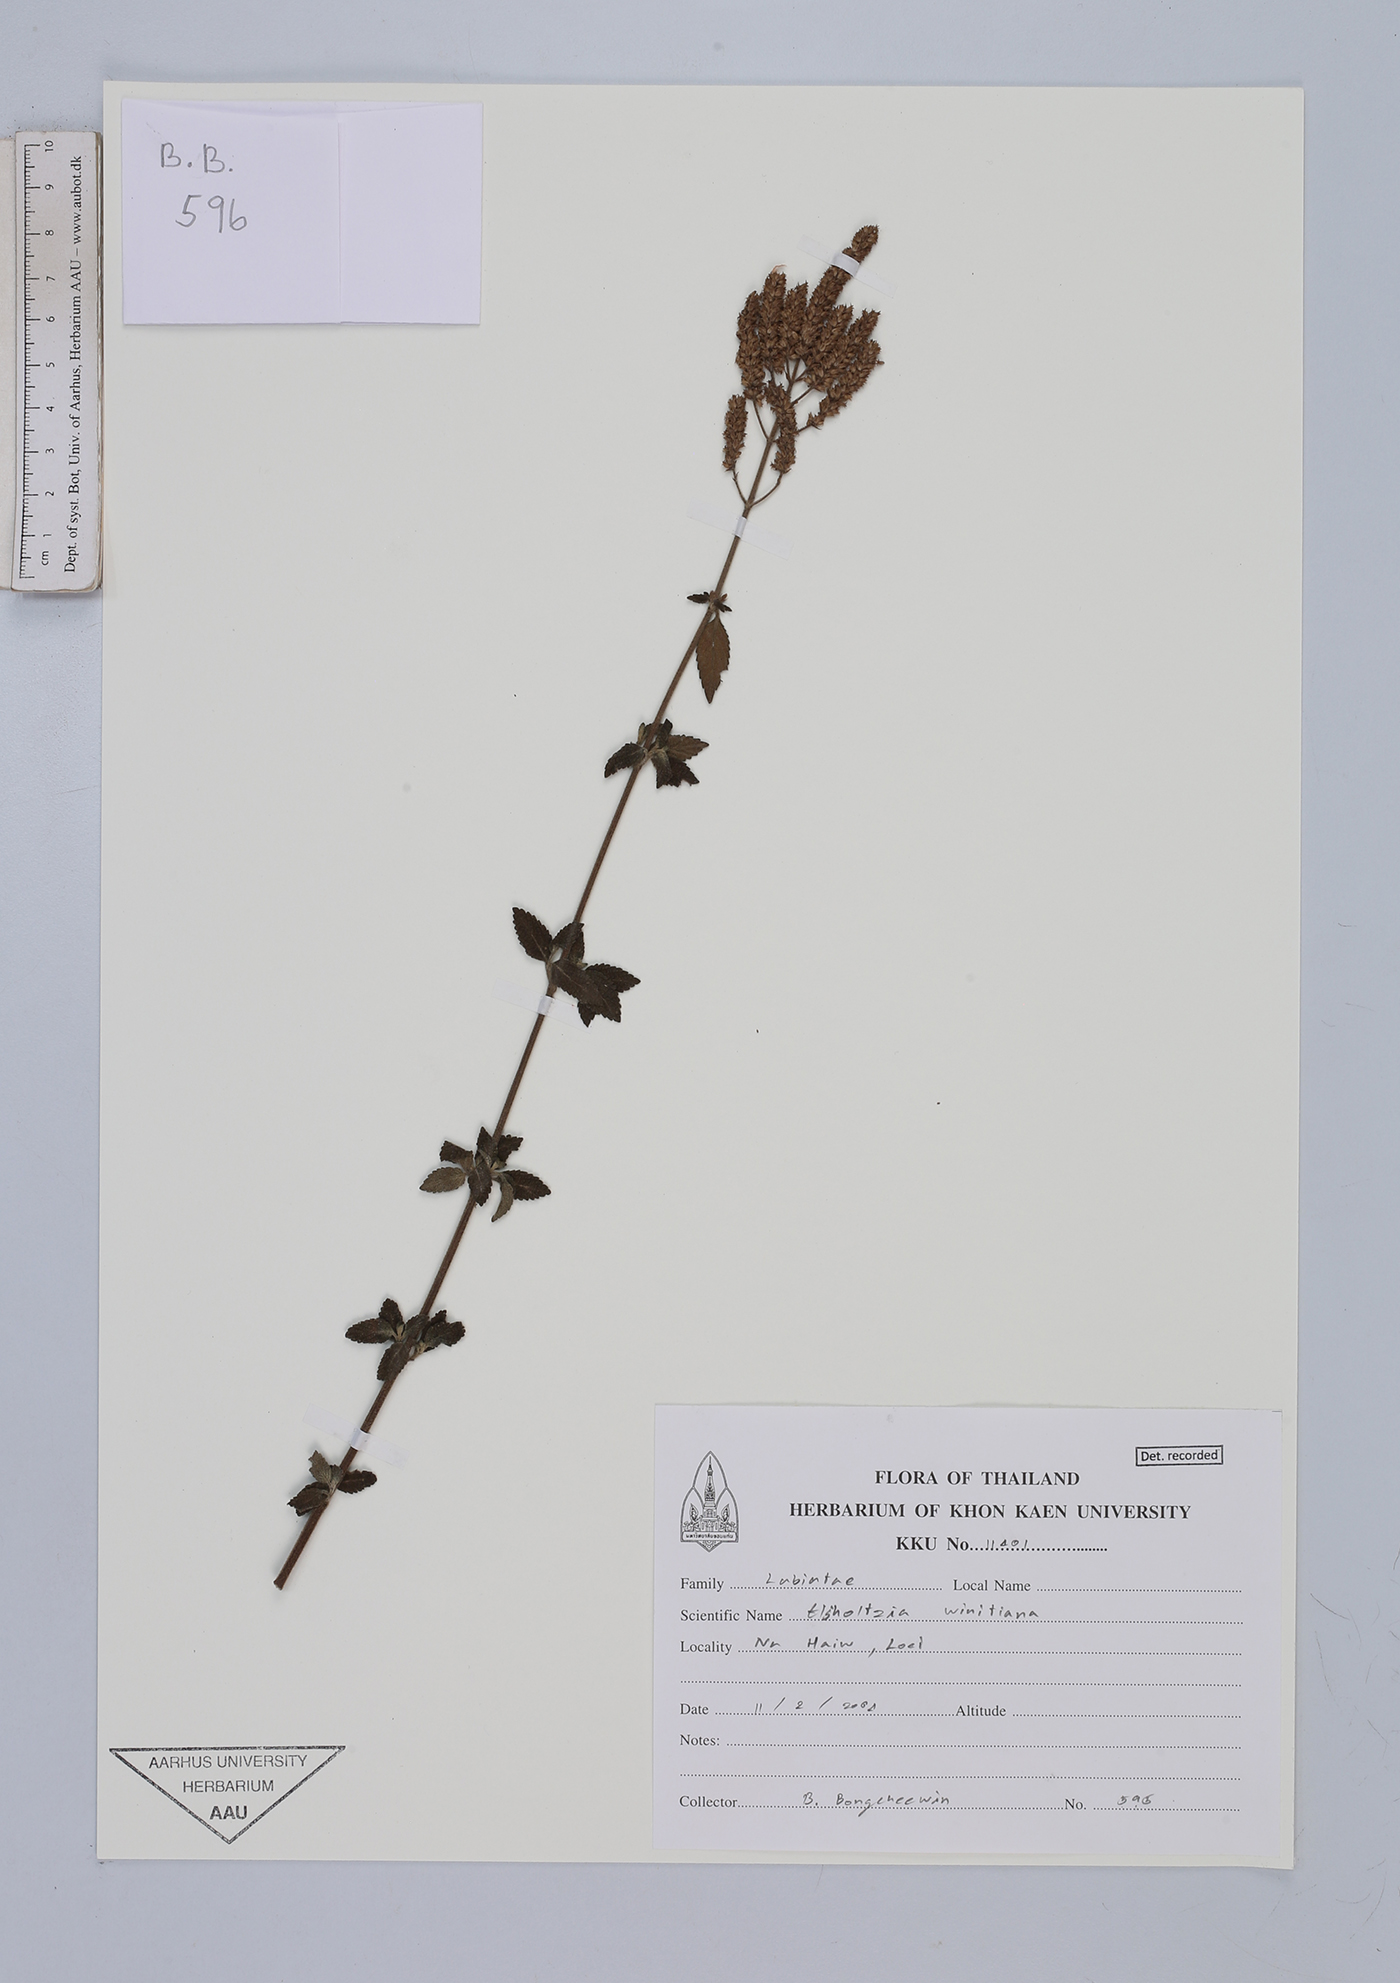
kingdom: Plantae
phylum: Tracheophyta
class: Magnoliopsida
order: Lamiales
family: Lamiaceae
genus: Elsholtzia
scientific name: Elsholtzia winitiana
